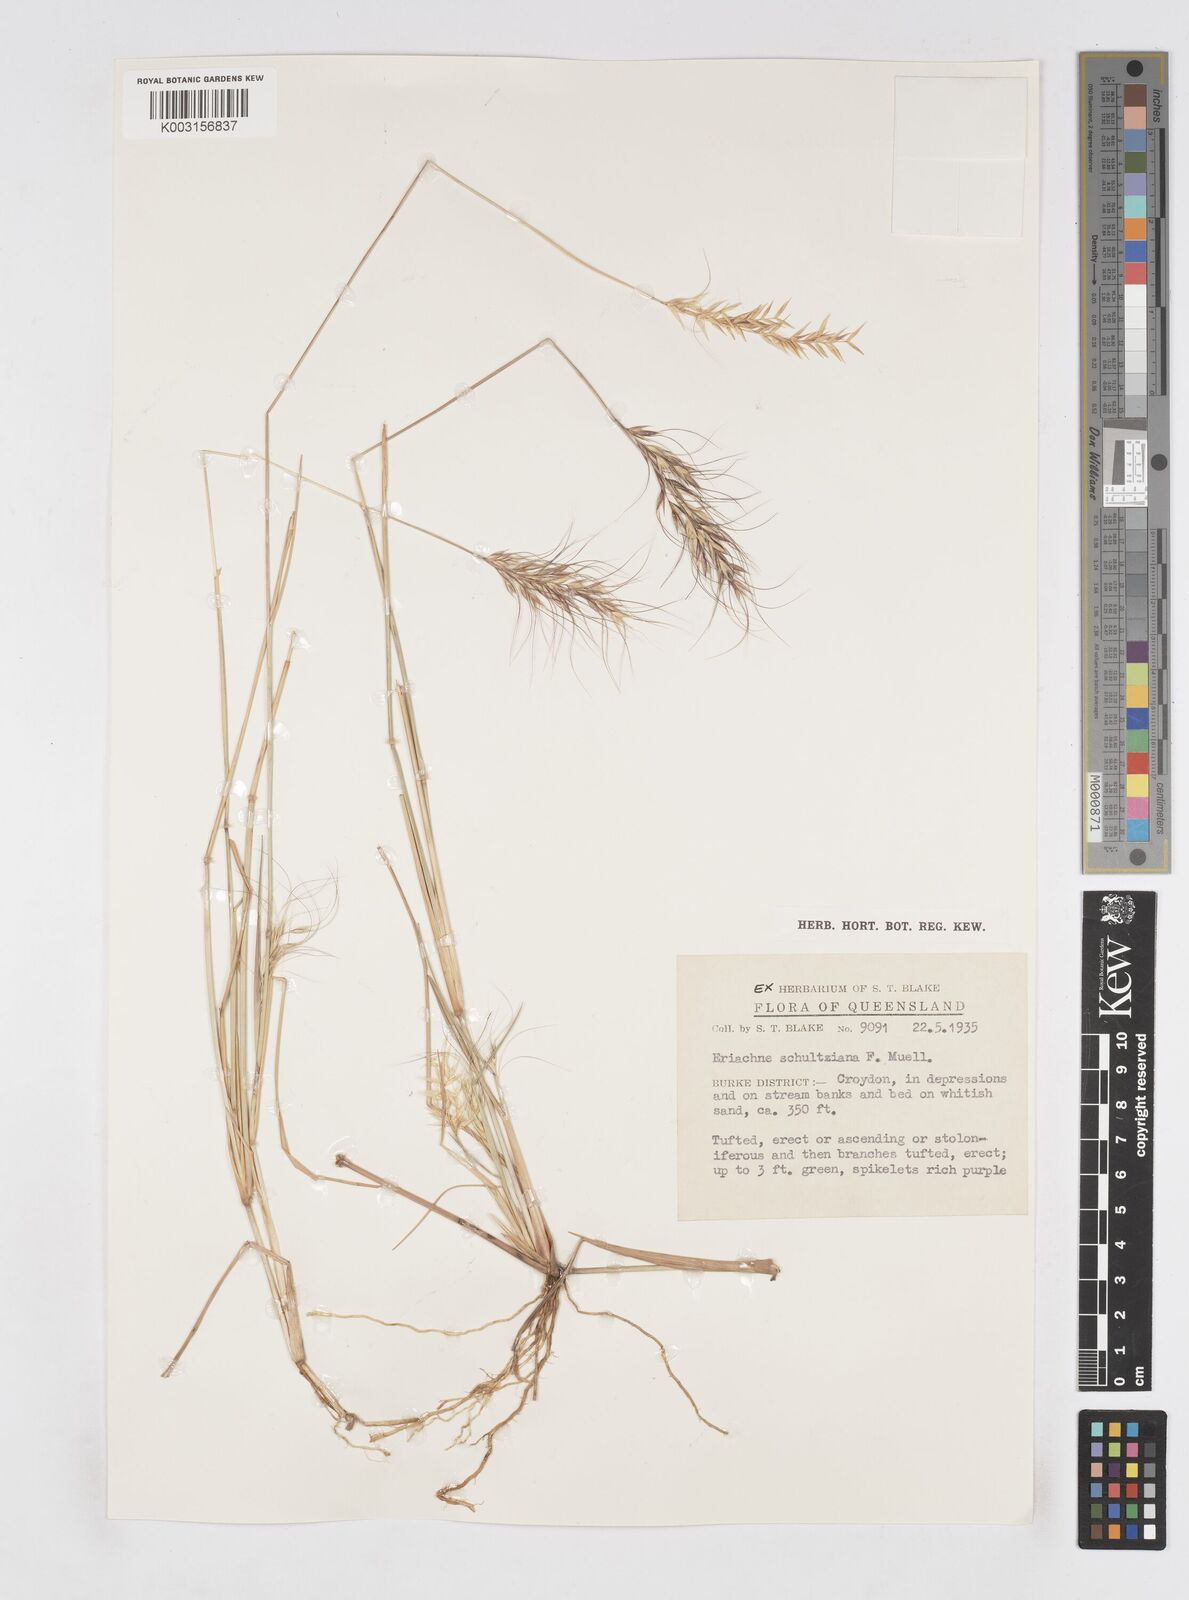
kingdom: Plantae
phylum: Tracheophyta
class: Liliopsida
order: Poales
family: Poaceae
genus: Eriachne
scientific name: Eriachne schultziana
